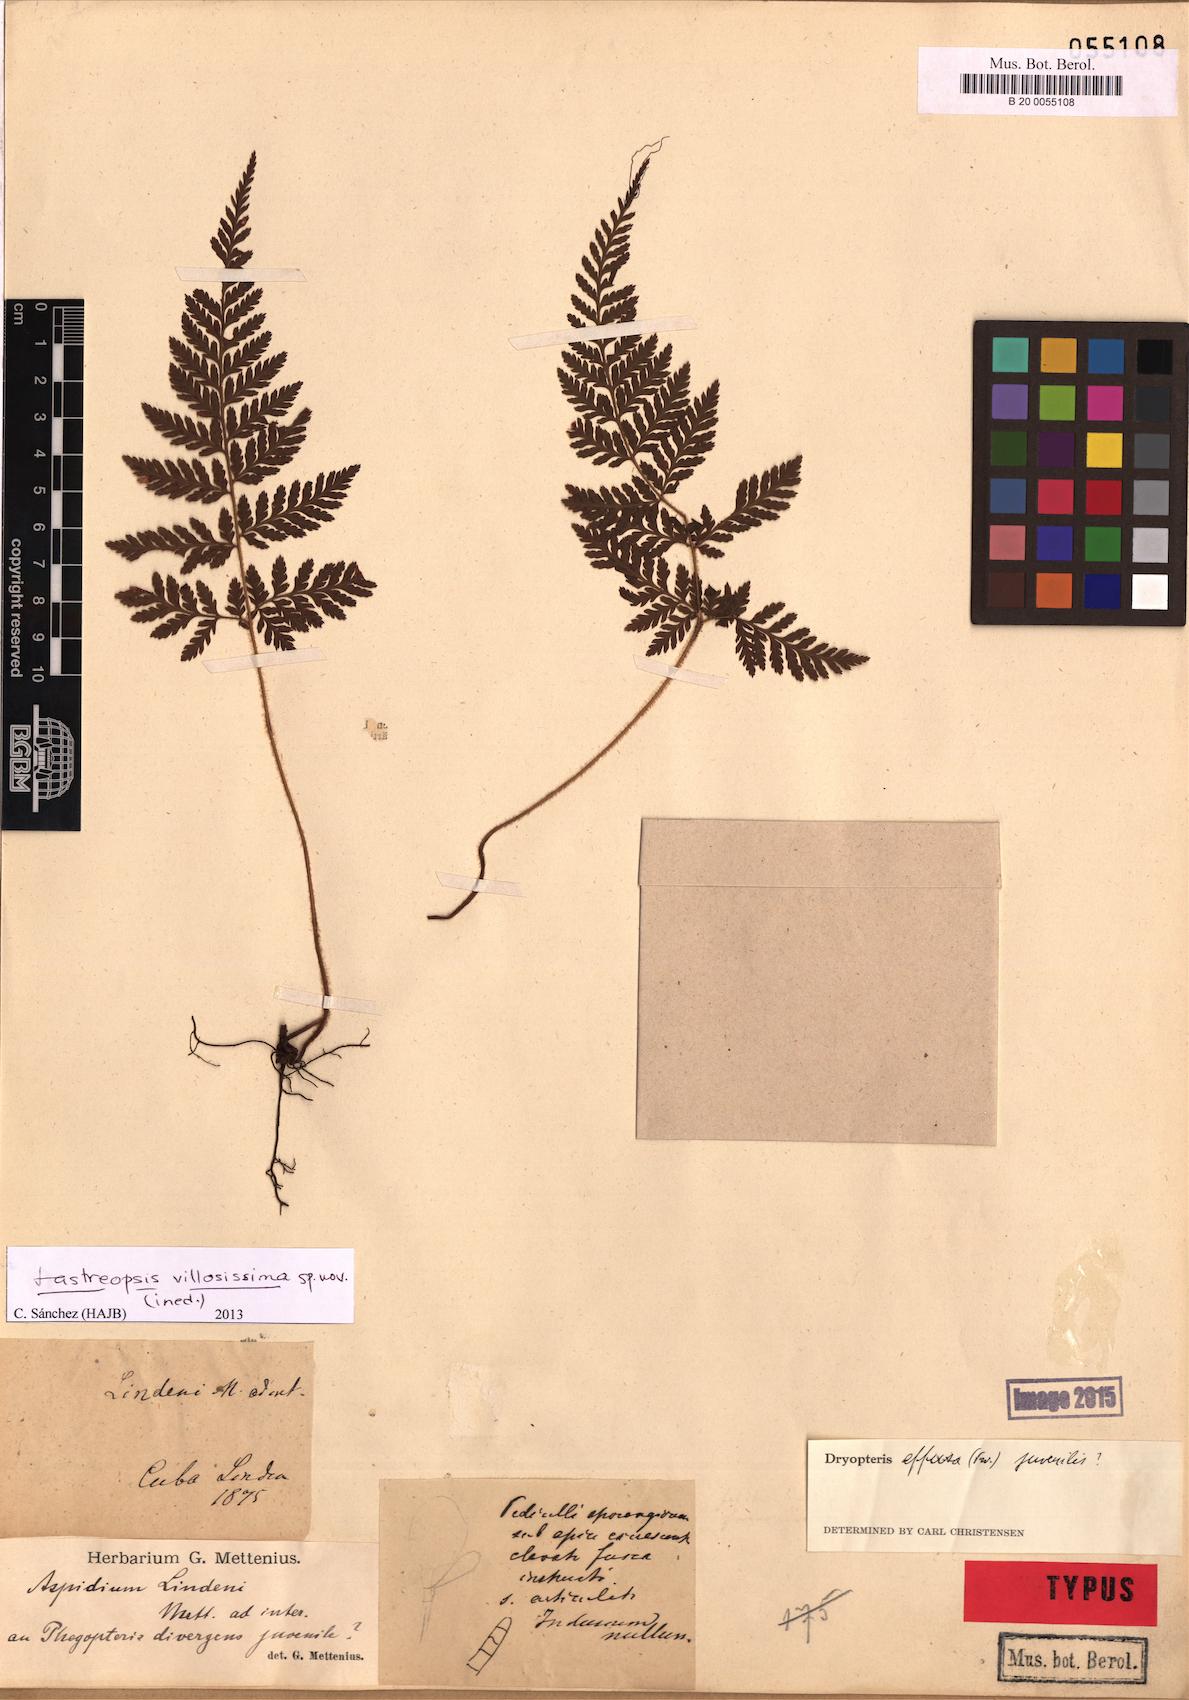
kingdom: Plantae
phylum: Tracheophyta
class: Polypodiopsida
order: Polypodiales
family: Dryopteridaceae
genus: Parapolystichum
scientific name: Parapolystichum villosissimum
